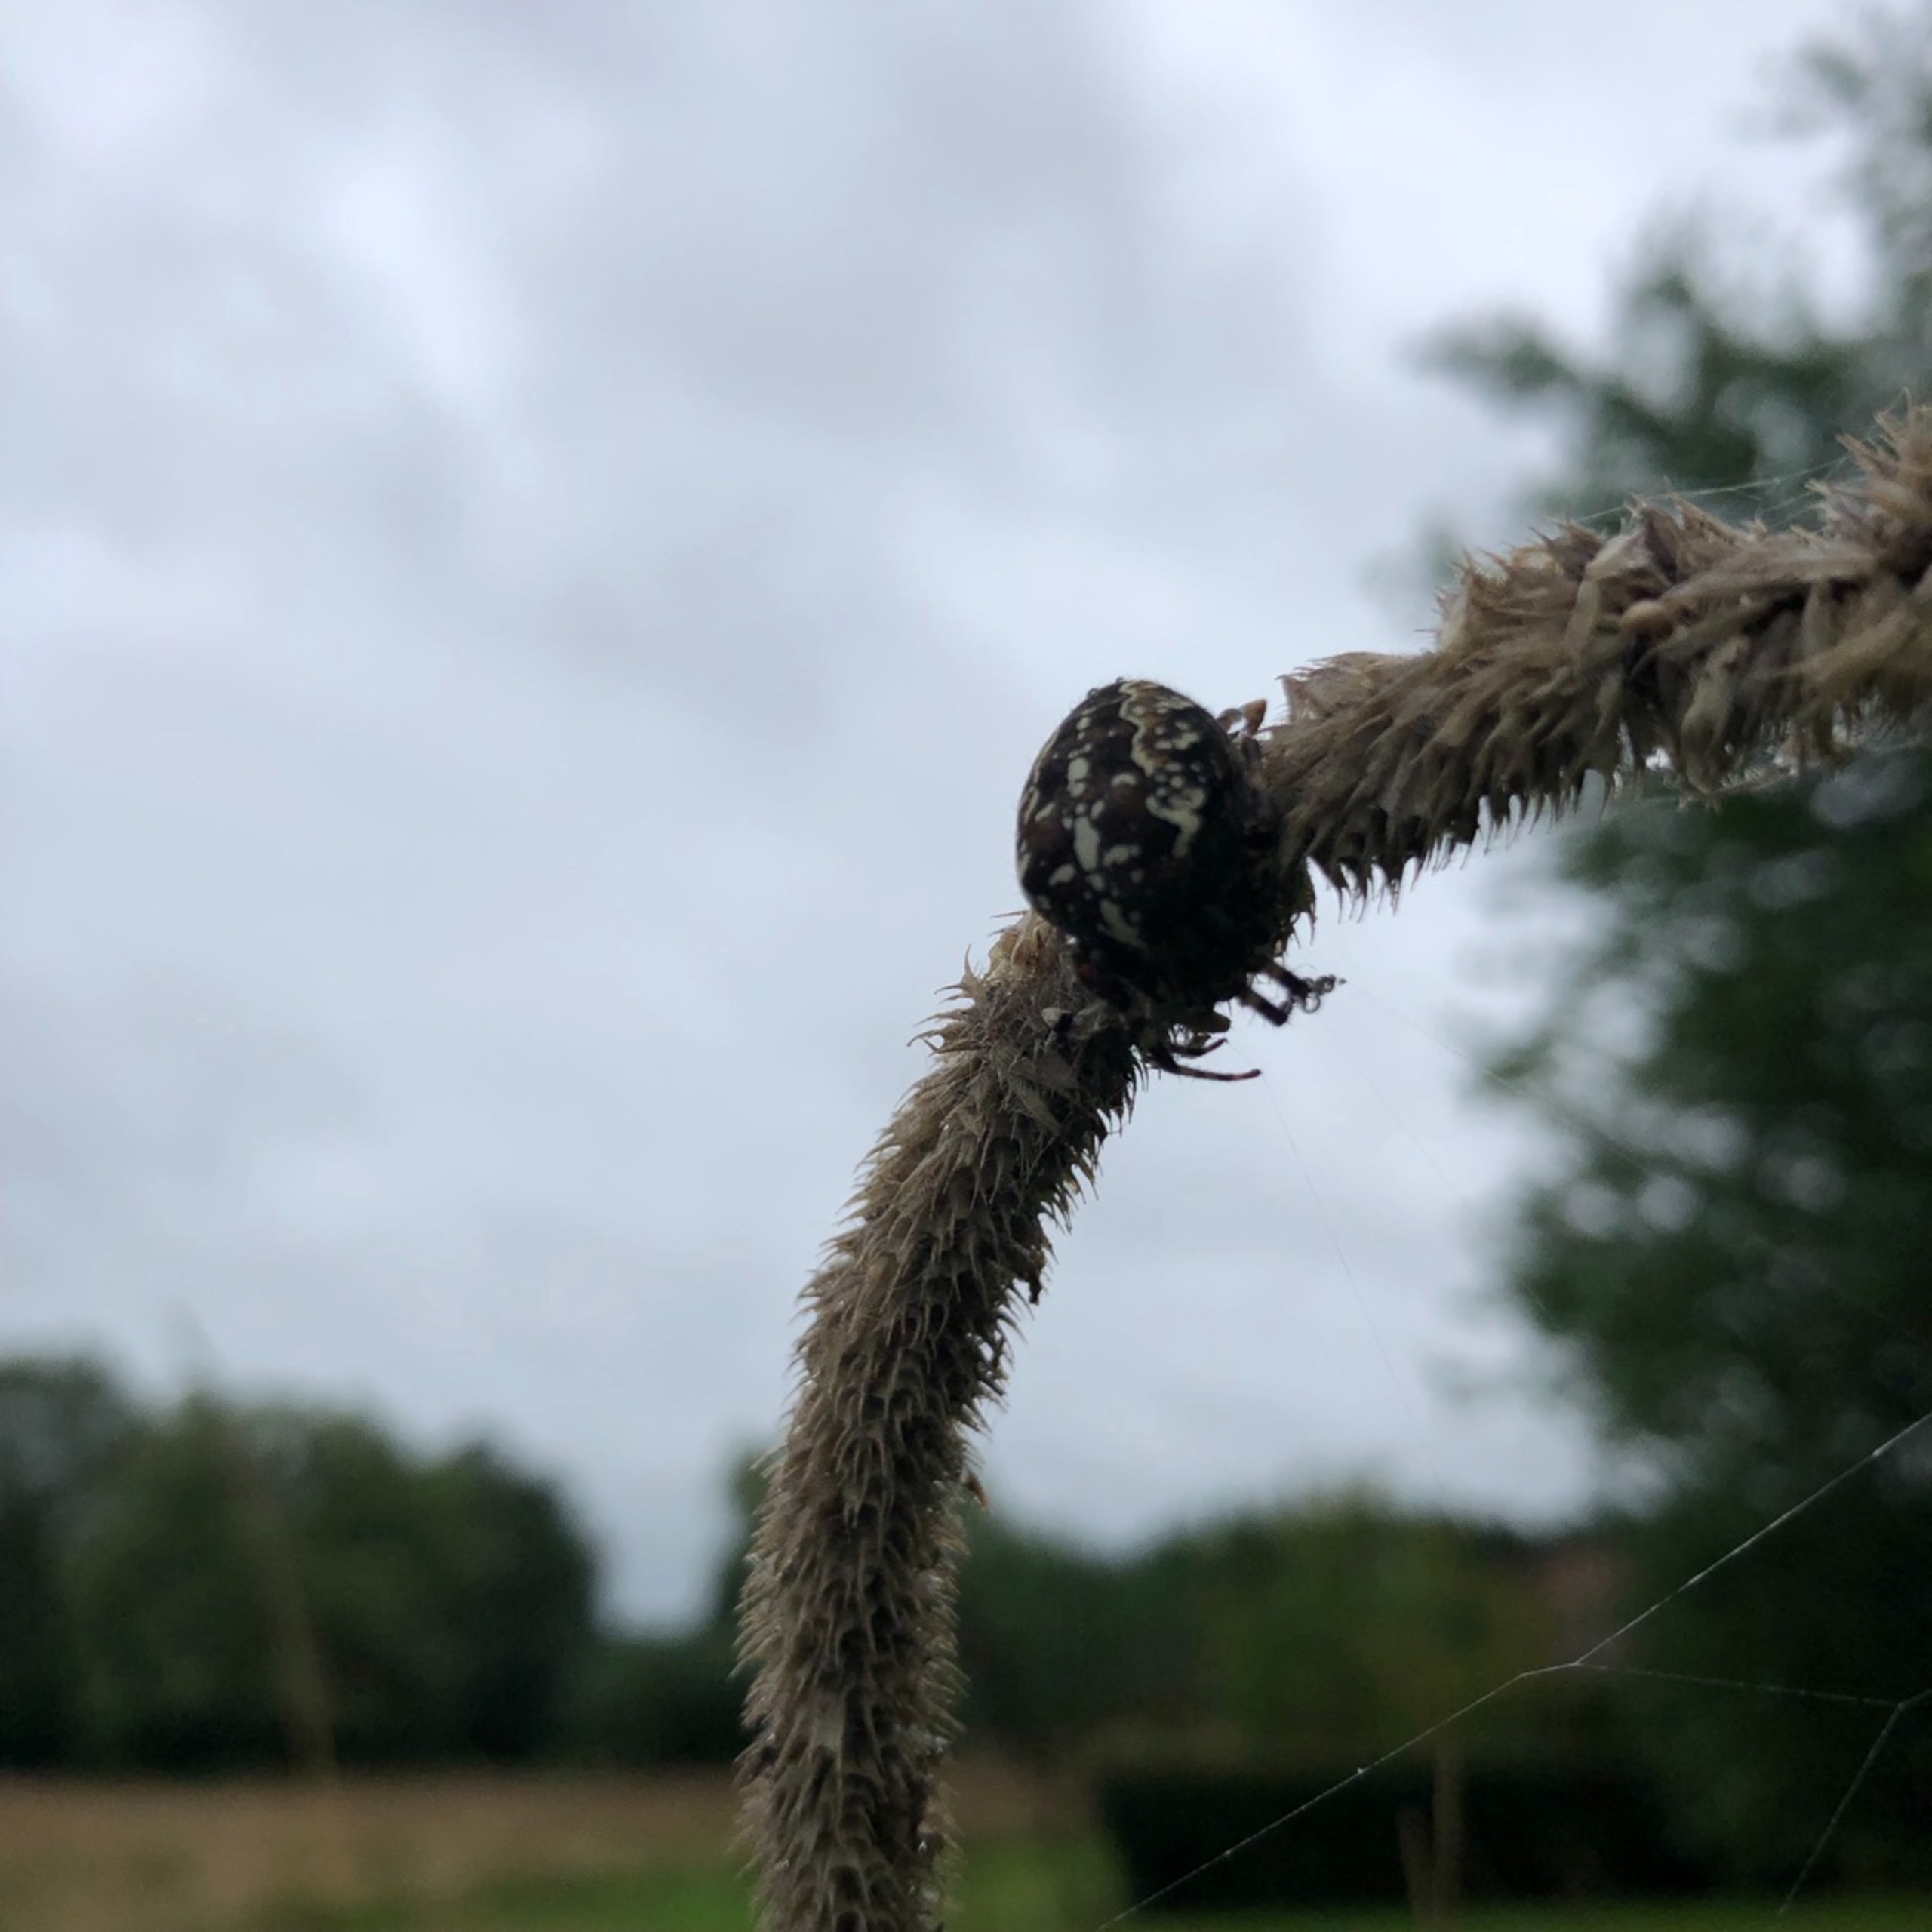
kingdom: Animalia
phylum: Arthropoda
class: Arachnida
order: Araneae
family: Araneidae
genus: Araneus
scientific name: Araneus diadematus
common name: Korsedderkop
